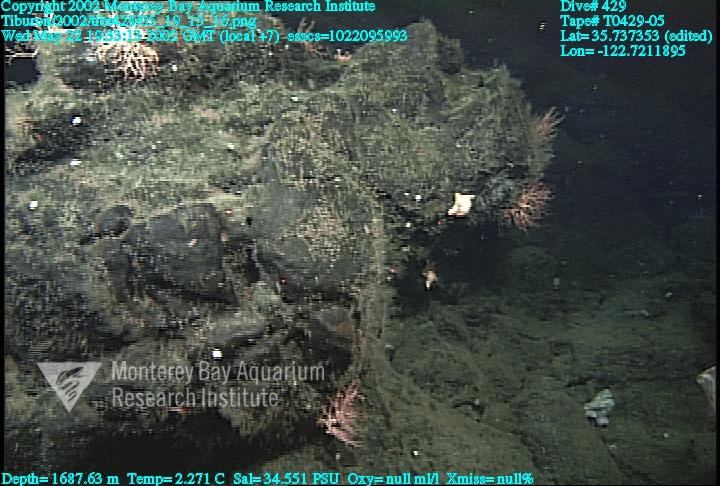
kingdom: Animalia
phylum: Porifera
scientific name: Porifera
